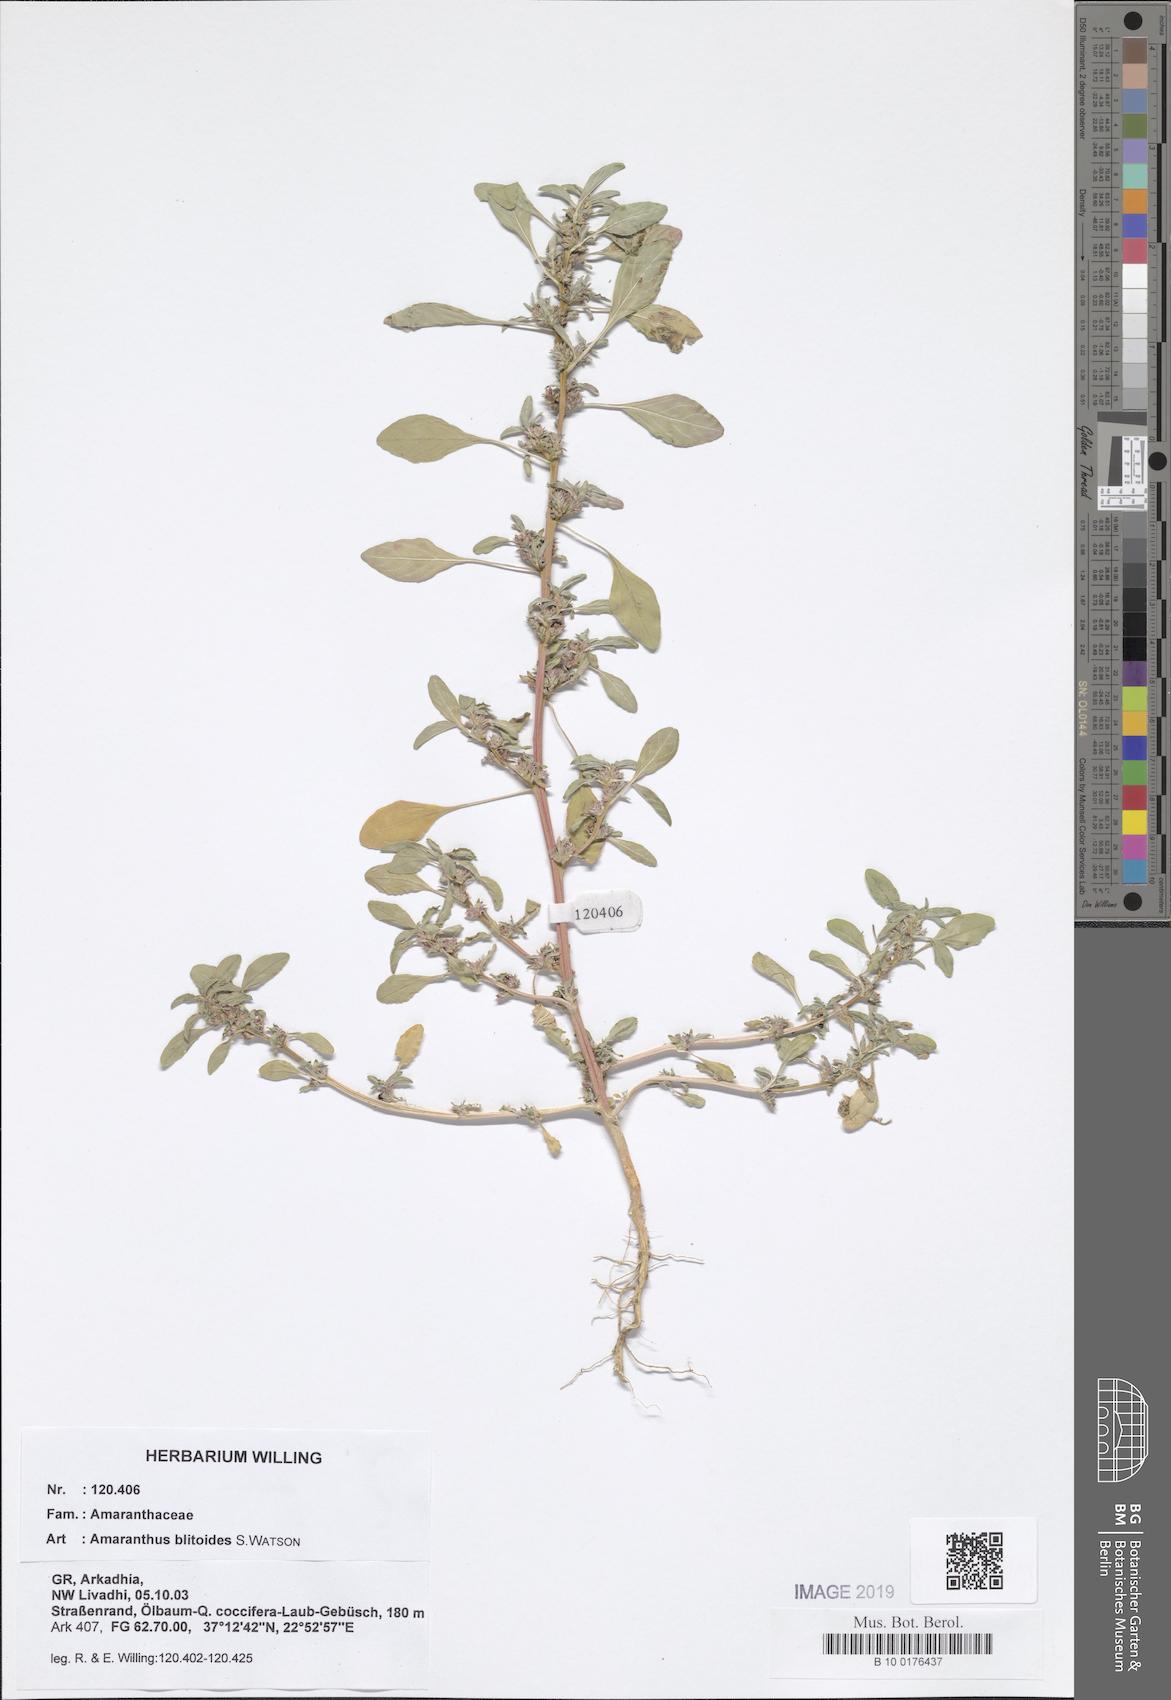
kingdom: Plantae
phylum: Tracheophyta
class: Magnoliopsida
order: Caryophyllales
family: Amaranthaceae
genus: Amaranthus
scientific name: Amaranthus blitoides
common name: Prostrate pigweed
